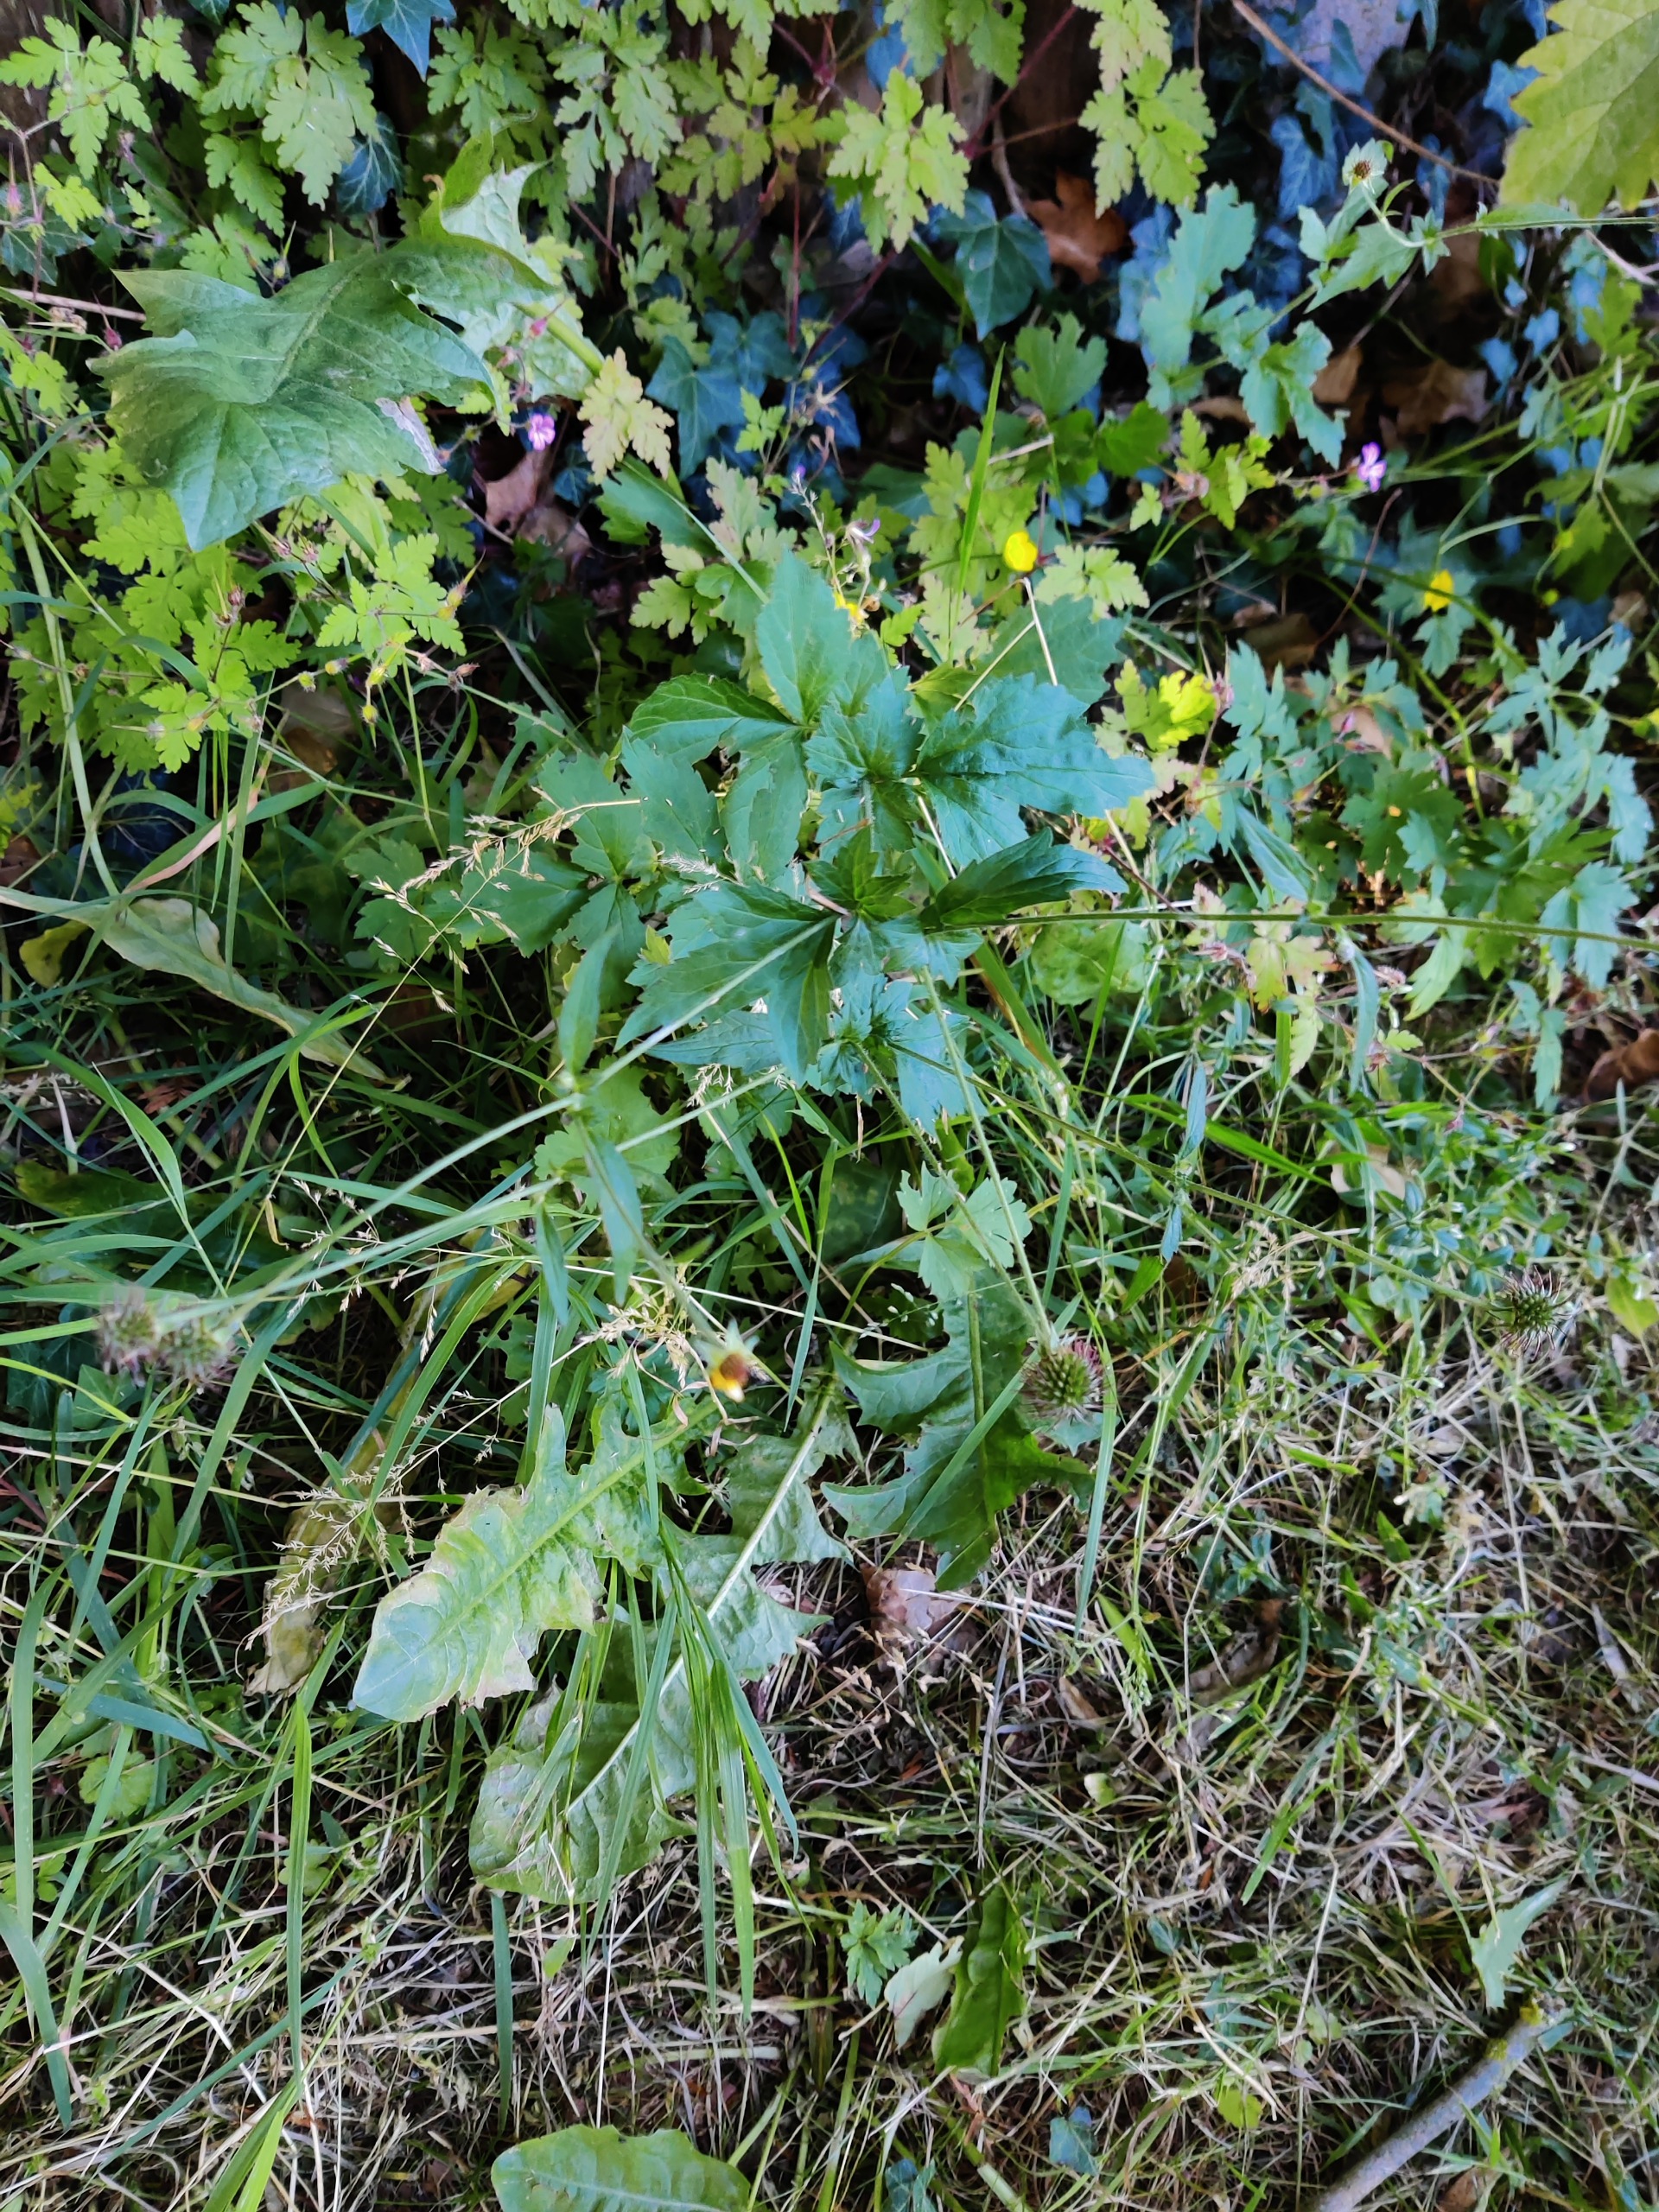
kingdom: Plantae
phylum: Tracheophyta
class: Magnoliopsida
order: Rosales
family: Rosaceae
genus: Geum
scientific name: Geum urbanum
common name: Feber-nellikerod
